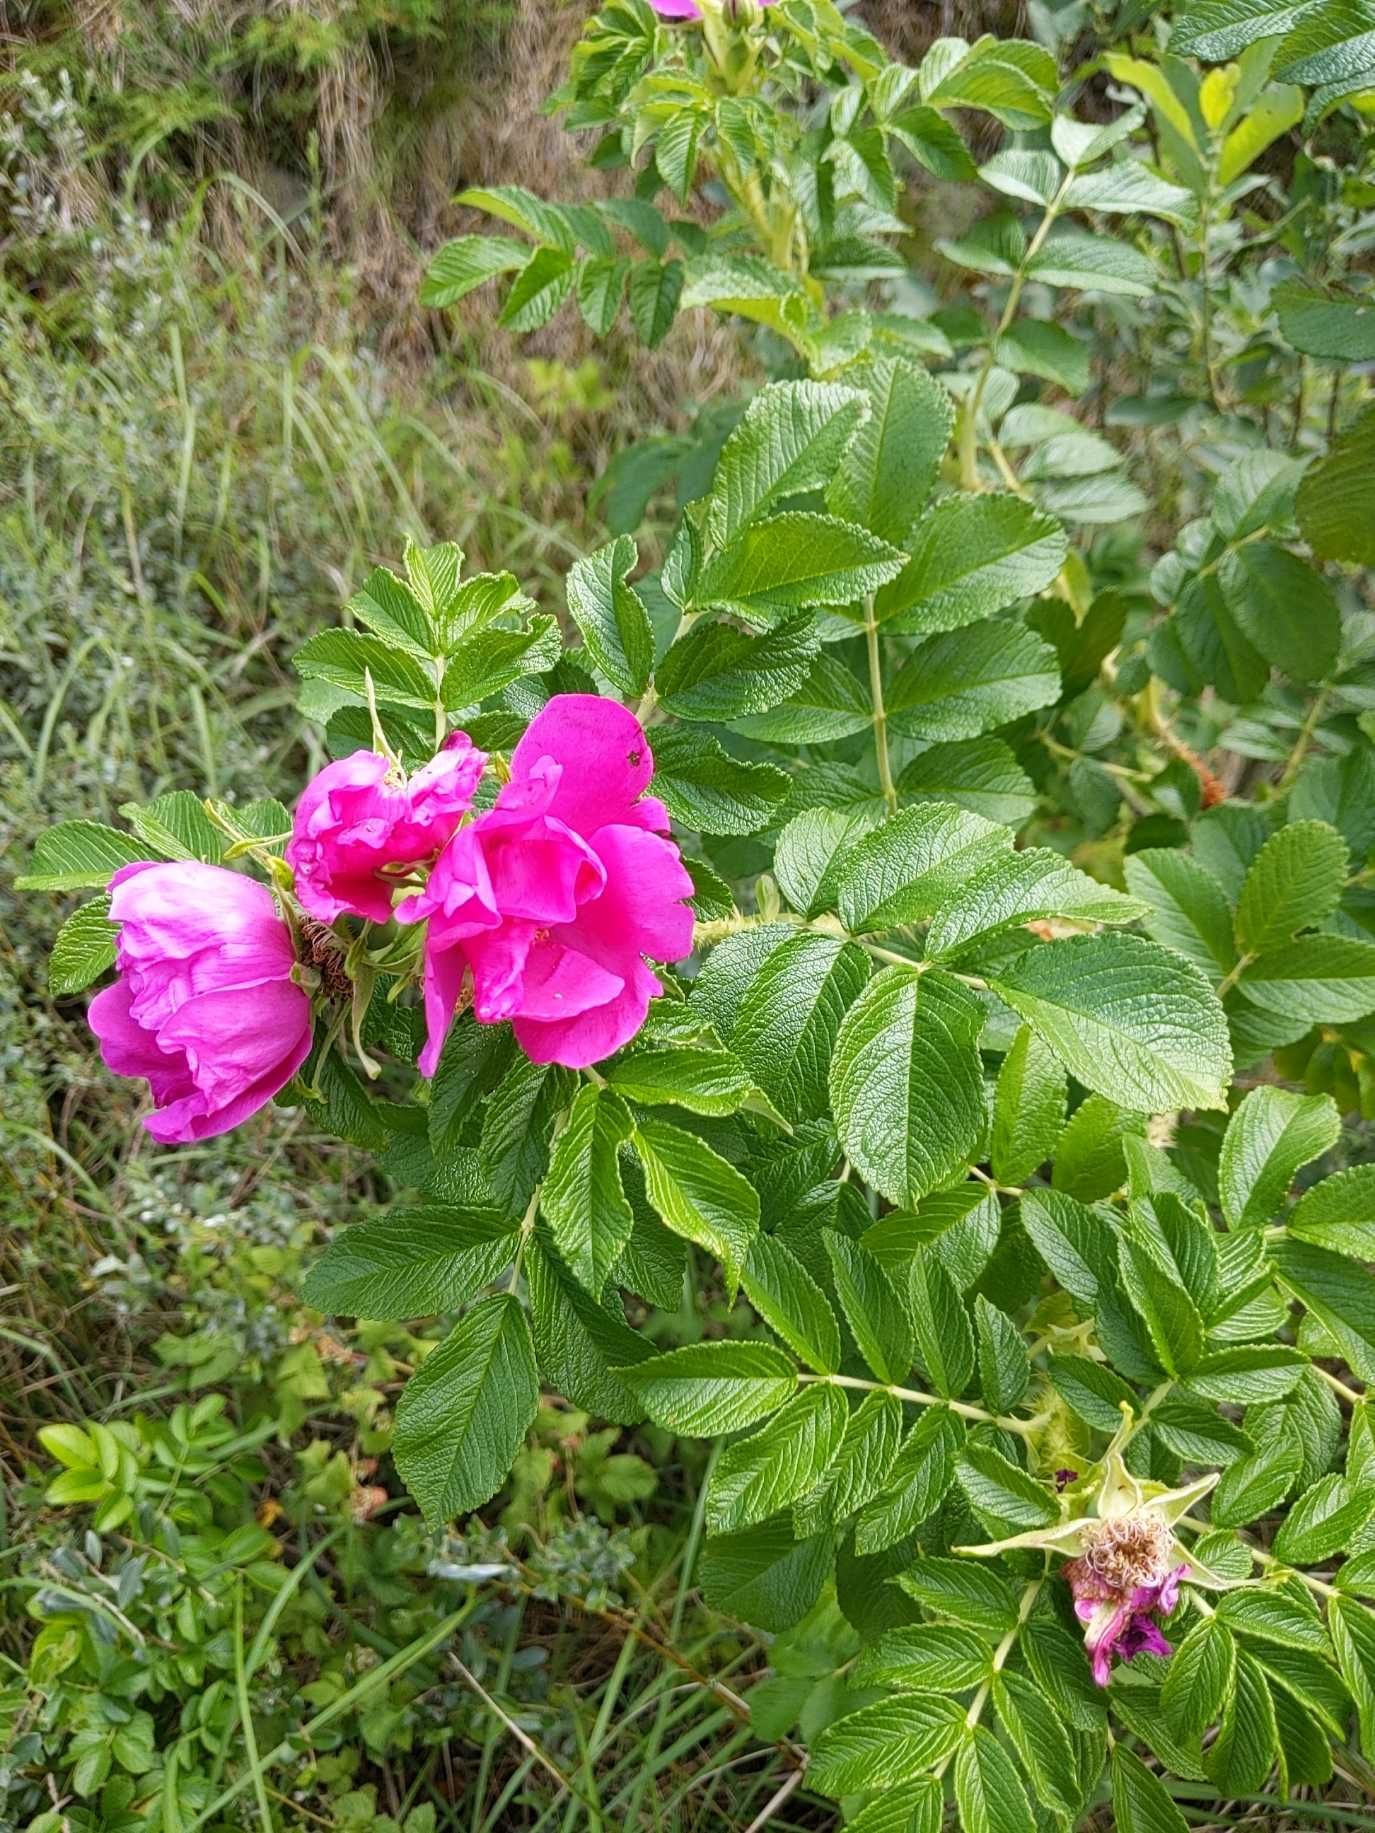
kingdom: Plantae
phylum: Tracheophyta
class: Magnoliopsida
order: Rosales
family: Rosaceae
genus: Rosa
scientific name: Rosa rugosa
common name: Rynket rose
